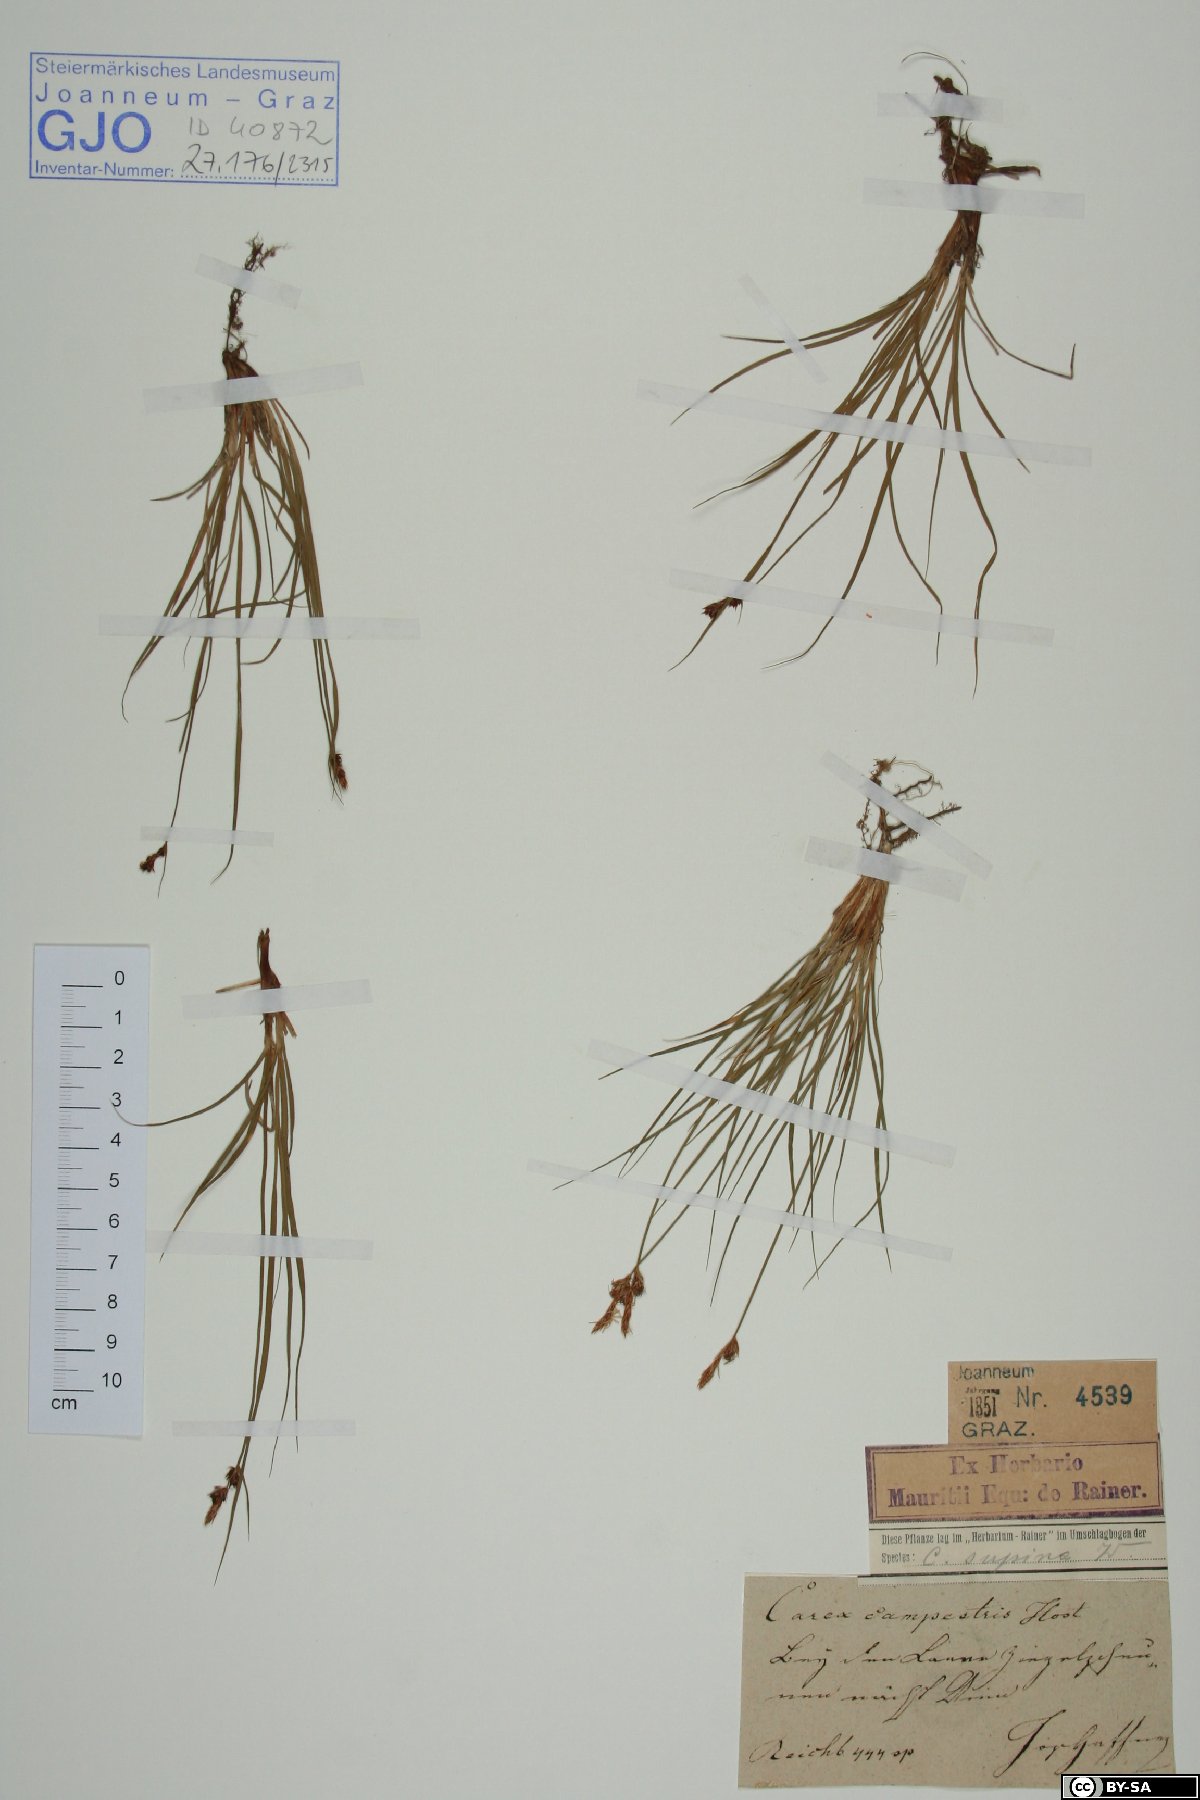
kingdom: Plantae
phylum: Tracheophyta
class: Liliopsida
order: Poales
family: Cyperaceae
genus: Carex
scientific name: Carex supina
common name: Lying-back sedge
